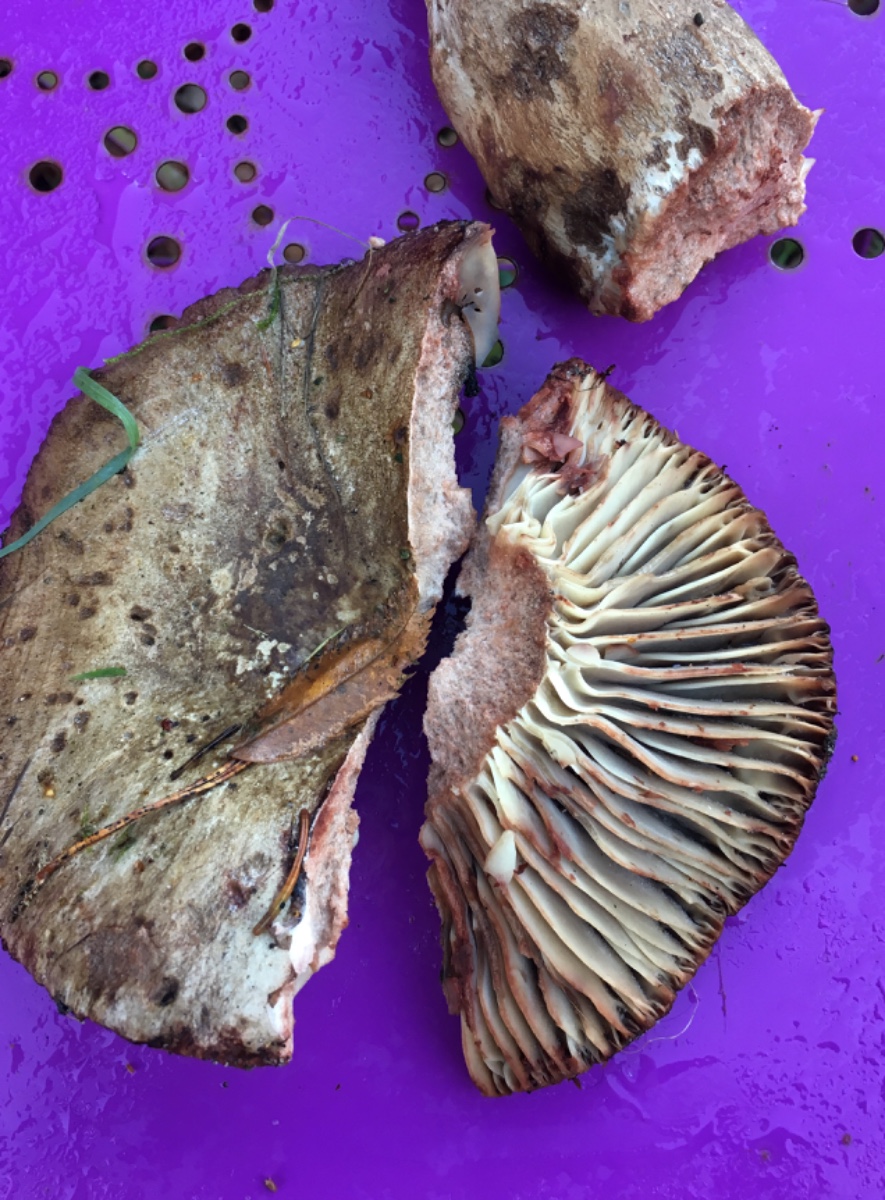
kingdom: Fungi
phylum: Basidiomycota
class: Agaricomycetes
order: Russulales
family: Russulaceae
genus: Russula
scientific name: Russula adusta
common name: sværtende skørhat
